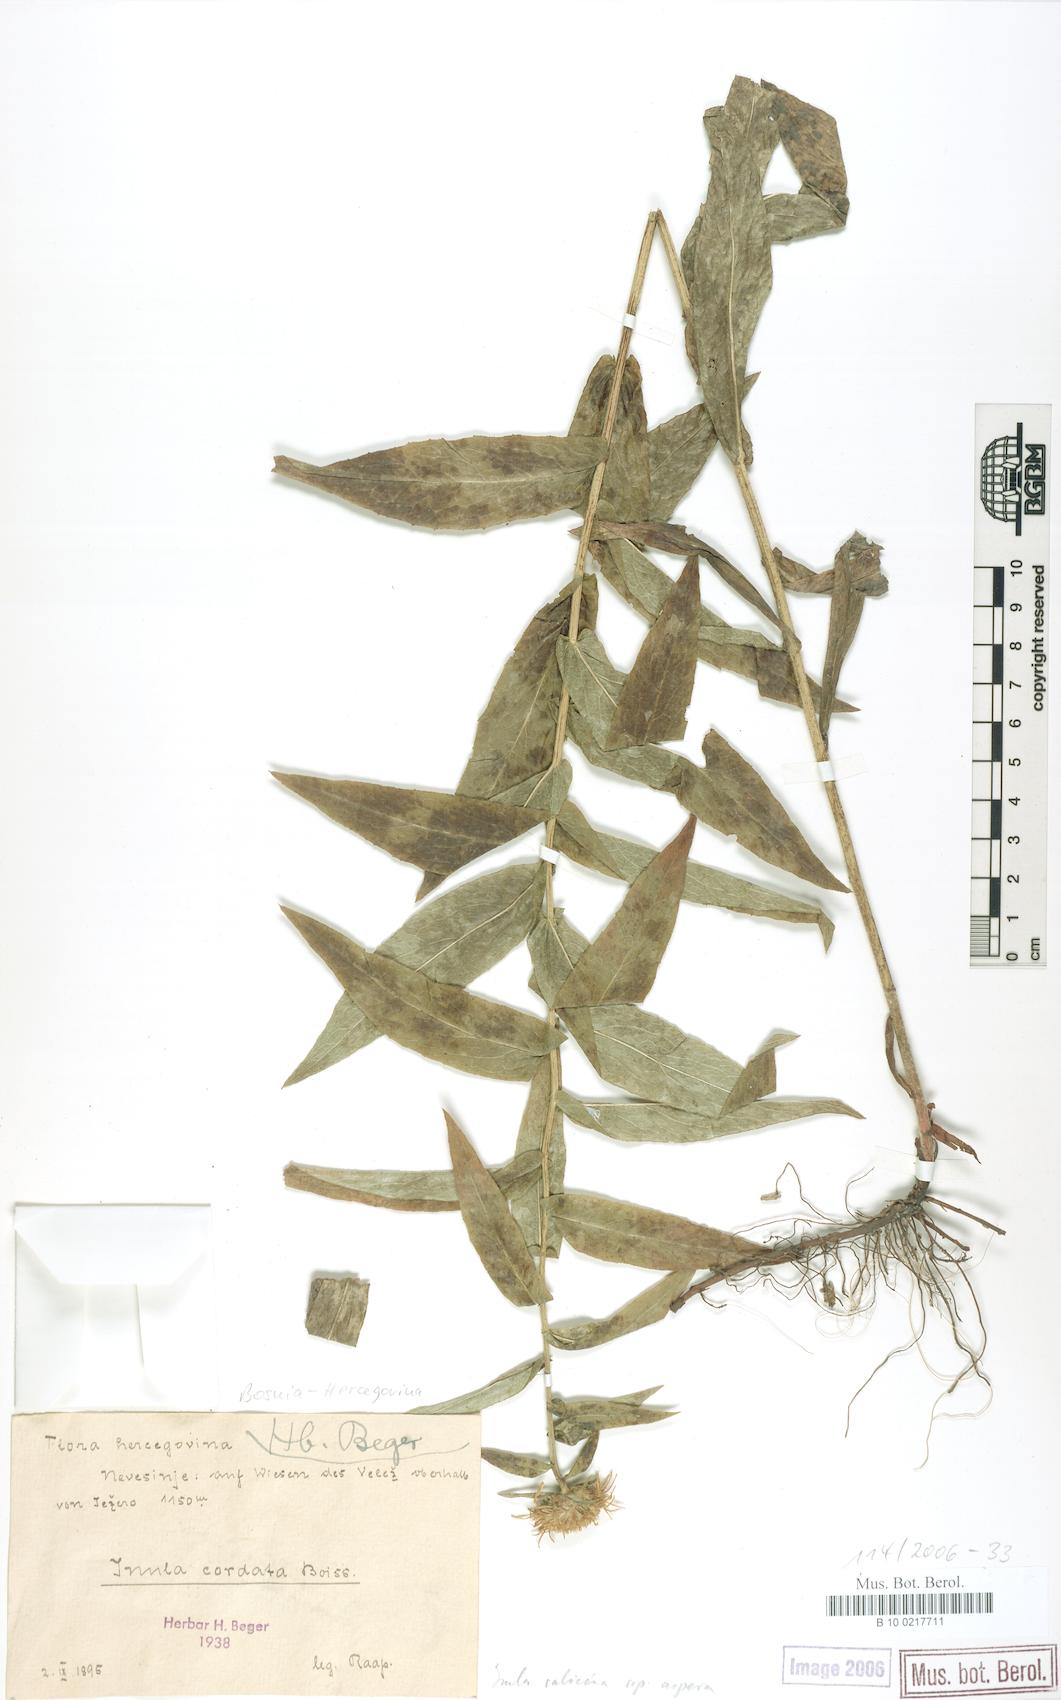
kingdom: Plantae
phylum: Tracheophyta
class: Magnoliopsida
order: Asterales
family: Asteraceae
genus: Pentanema
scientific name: Pentanema salicinum
